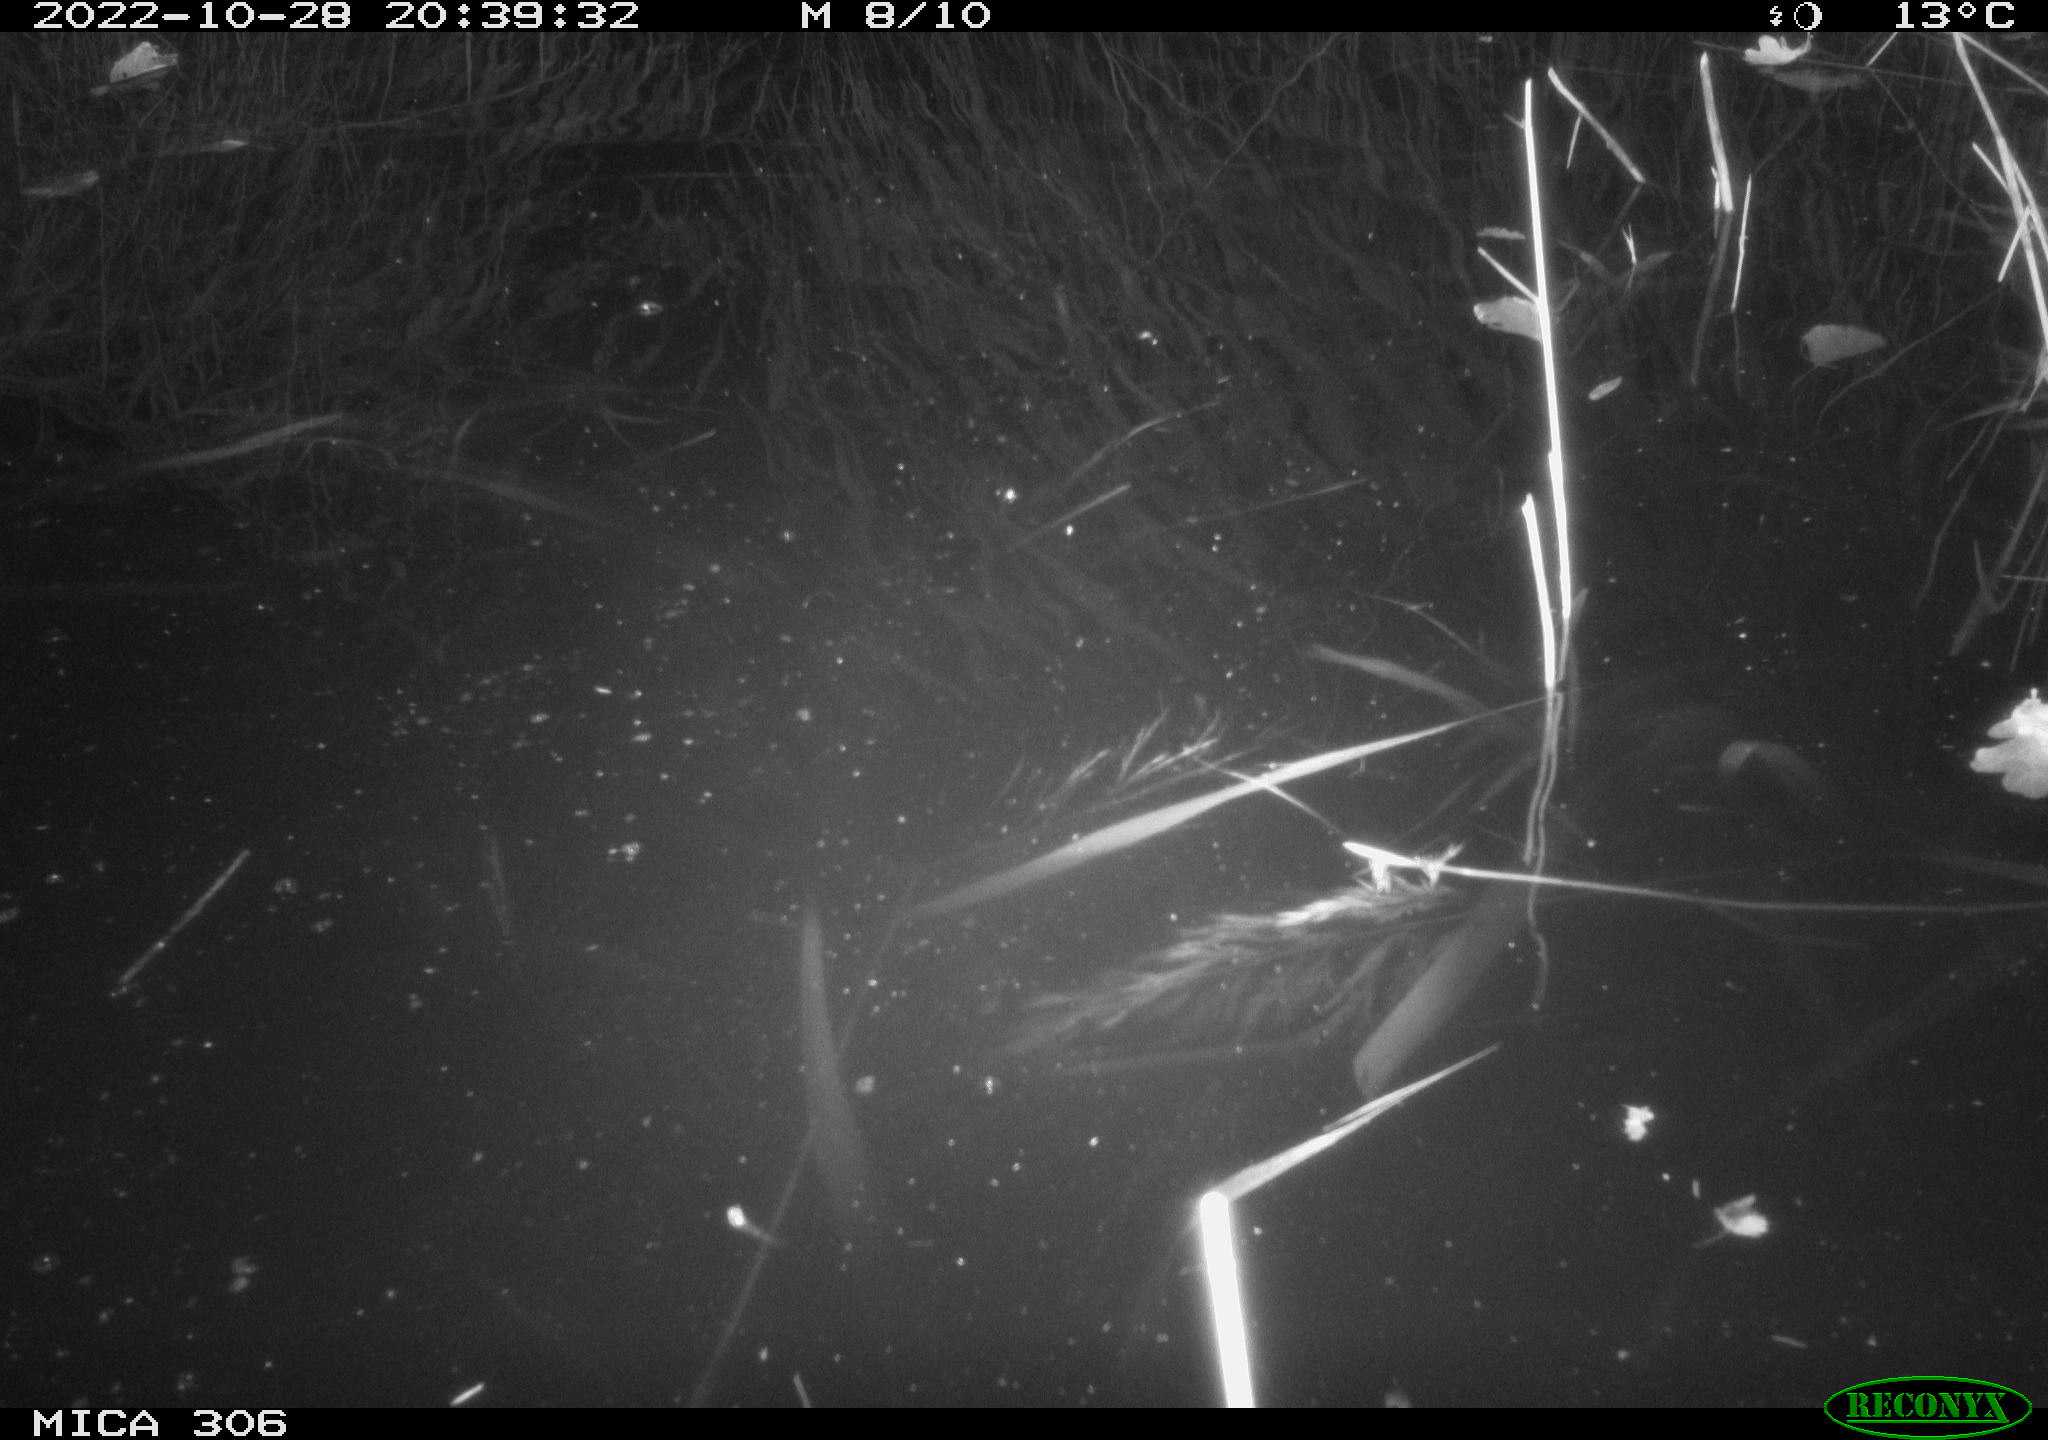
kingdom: Animalia
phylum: Chordata
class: Mammalia
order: Rodentia
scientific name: Rodentia
